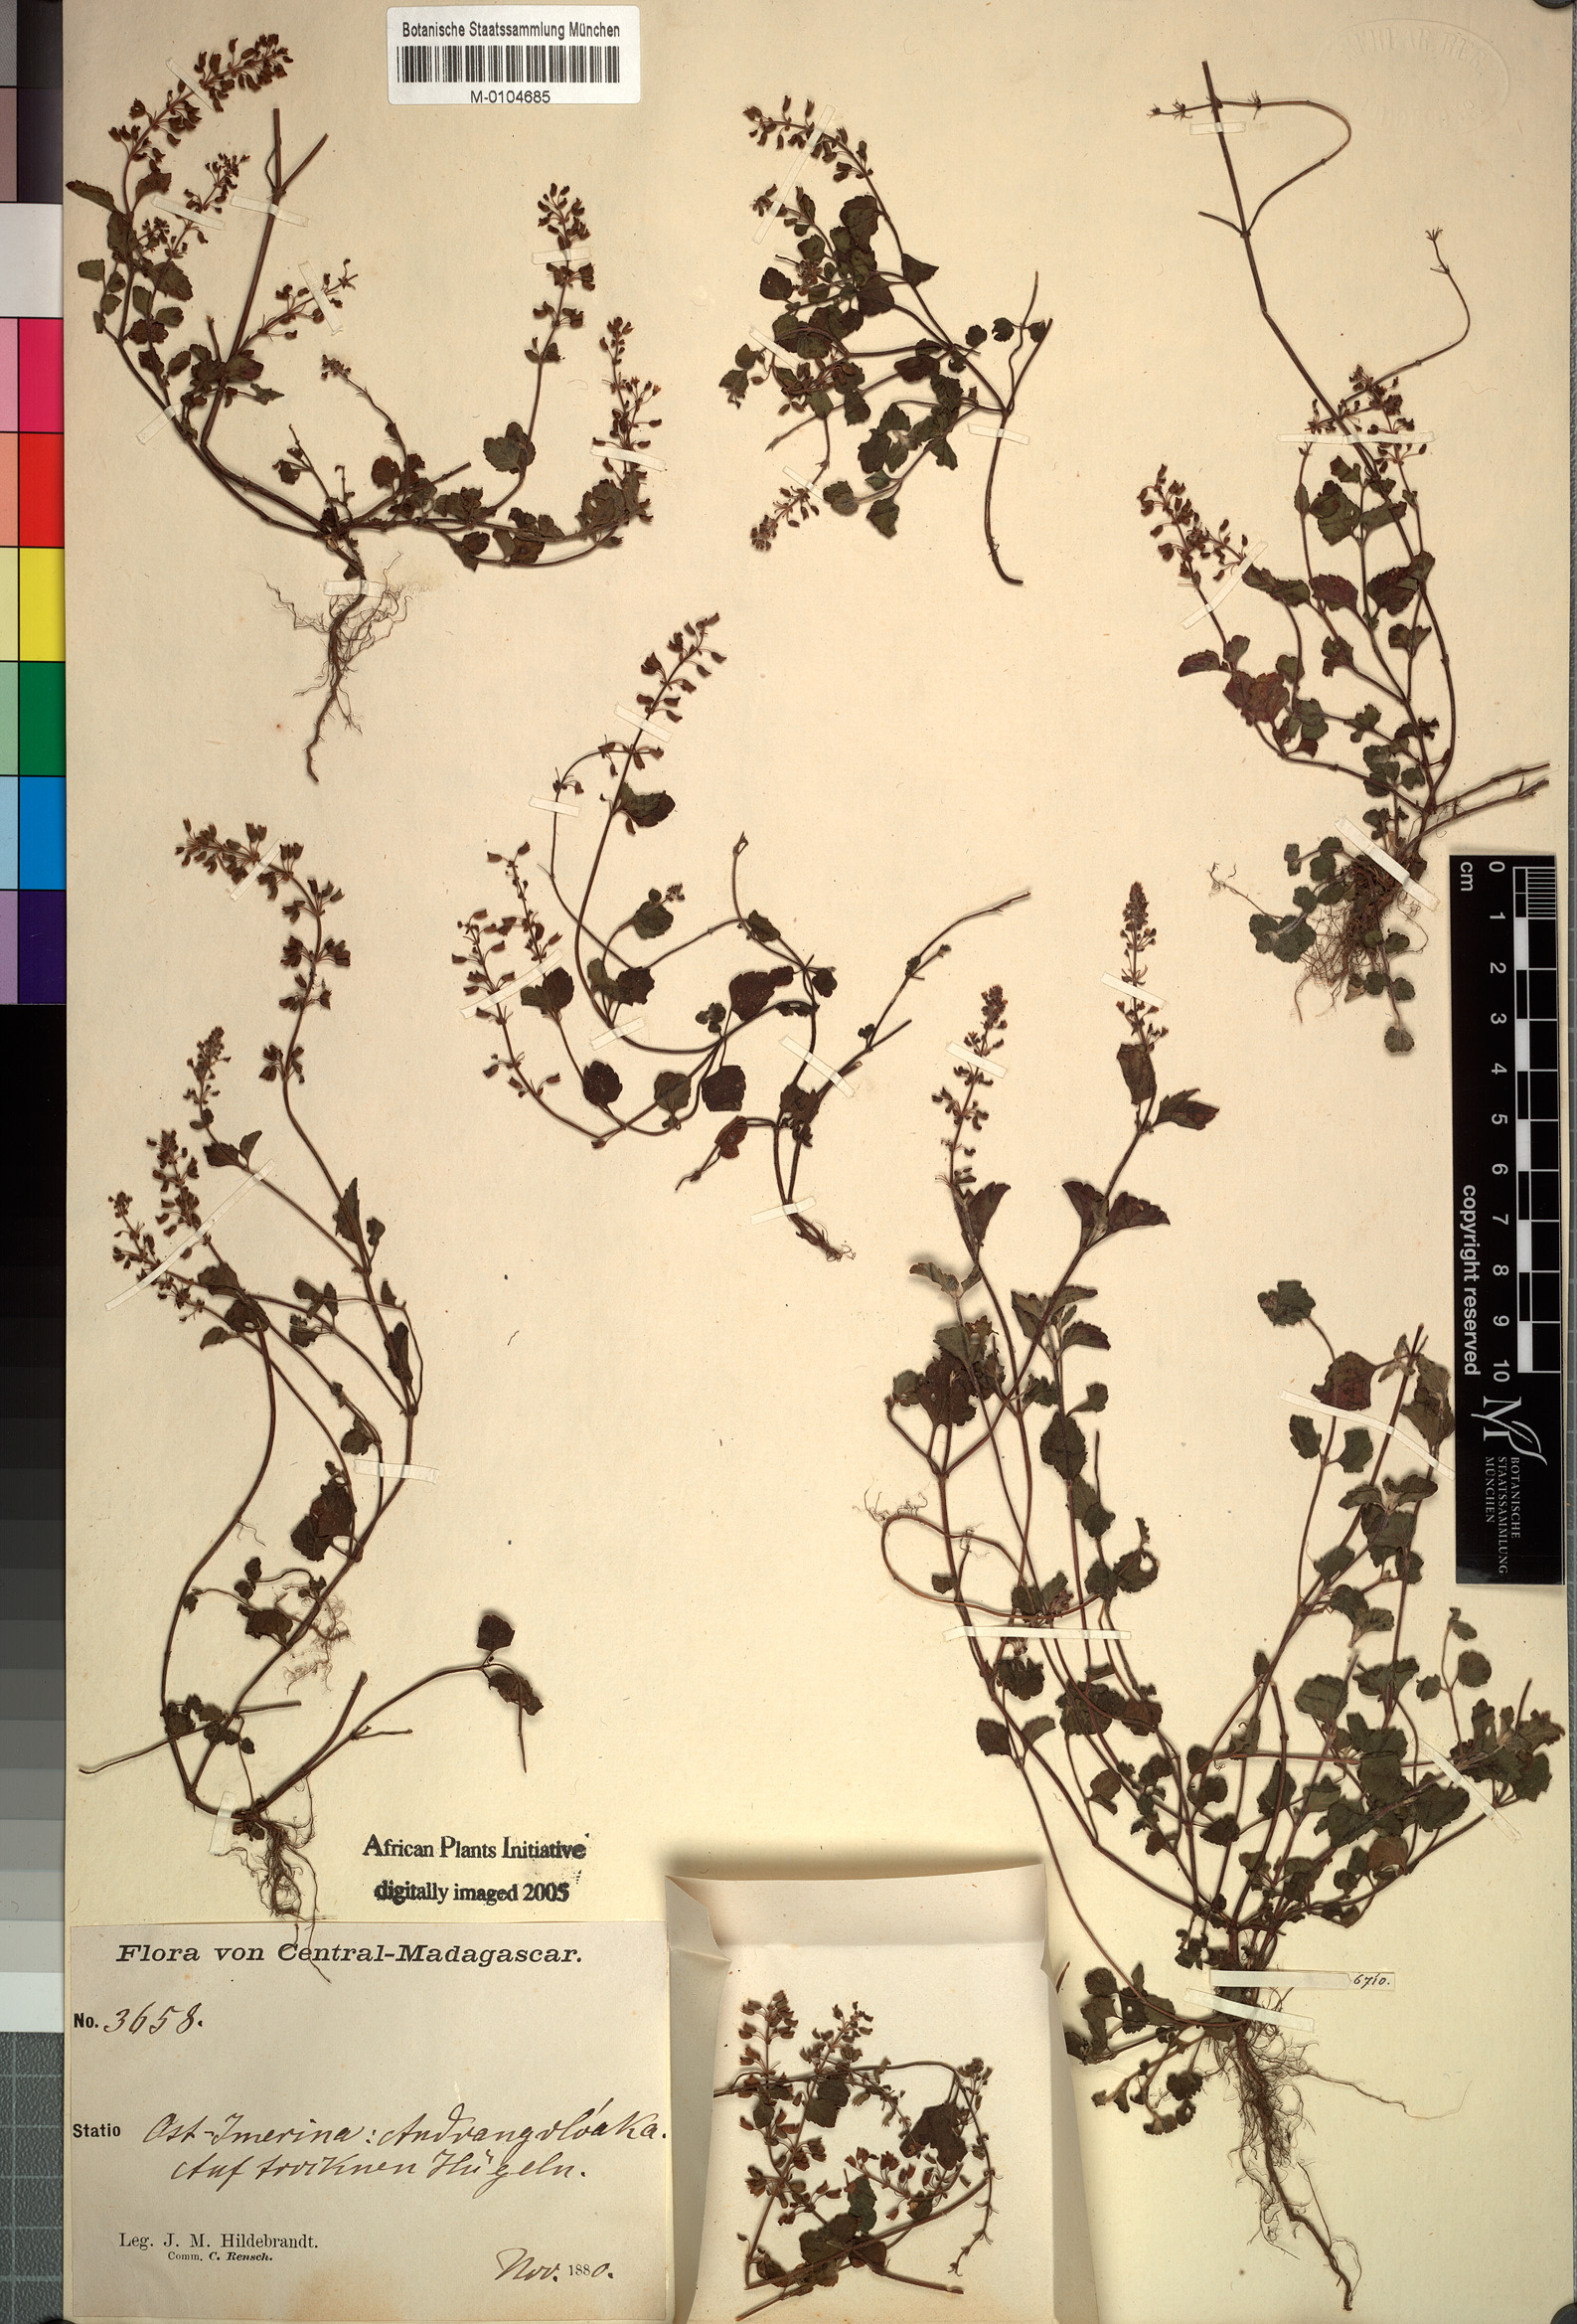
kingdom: Plantae
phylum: Tracheophyta
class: Magnoliopsida
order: Lamiales
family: Lamiaceae
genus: Platostoma
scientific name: Platostoma tenellum
